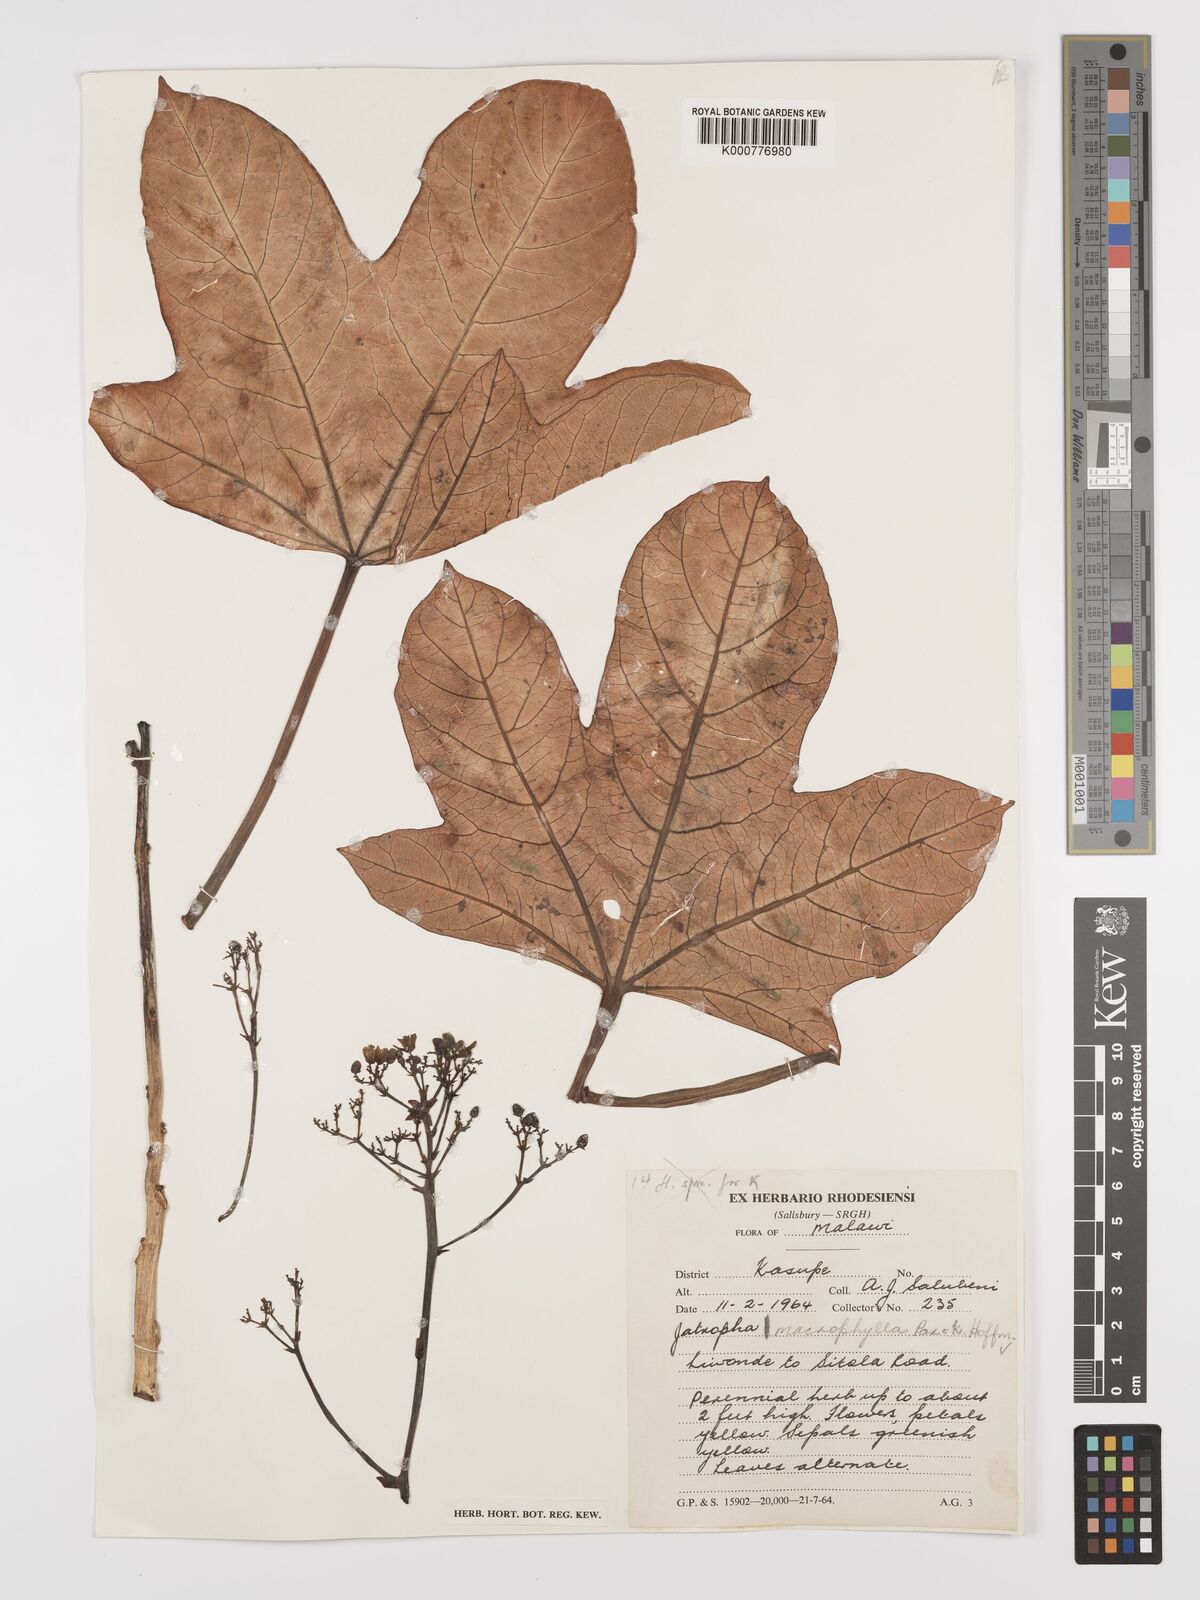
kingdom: Plantae
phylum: Tracheophyta
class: Magnoliopsida
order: Malpighiales
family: Euphorbiaceae
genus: Jatropha
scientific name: Jatropha macrophylla
